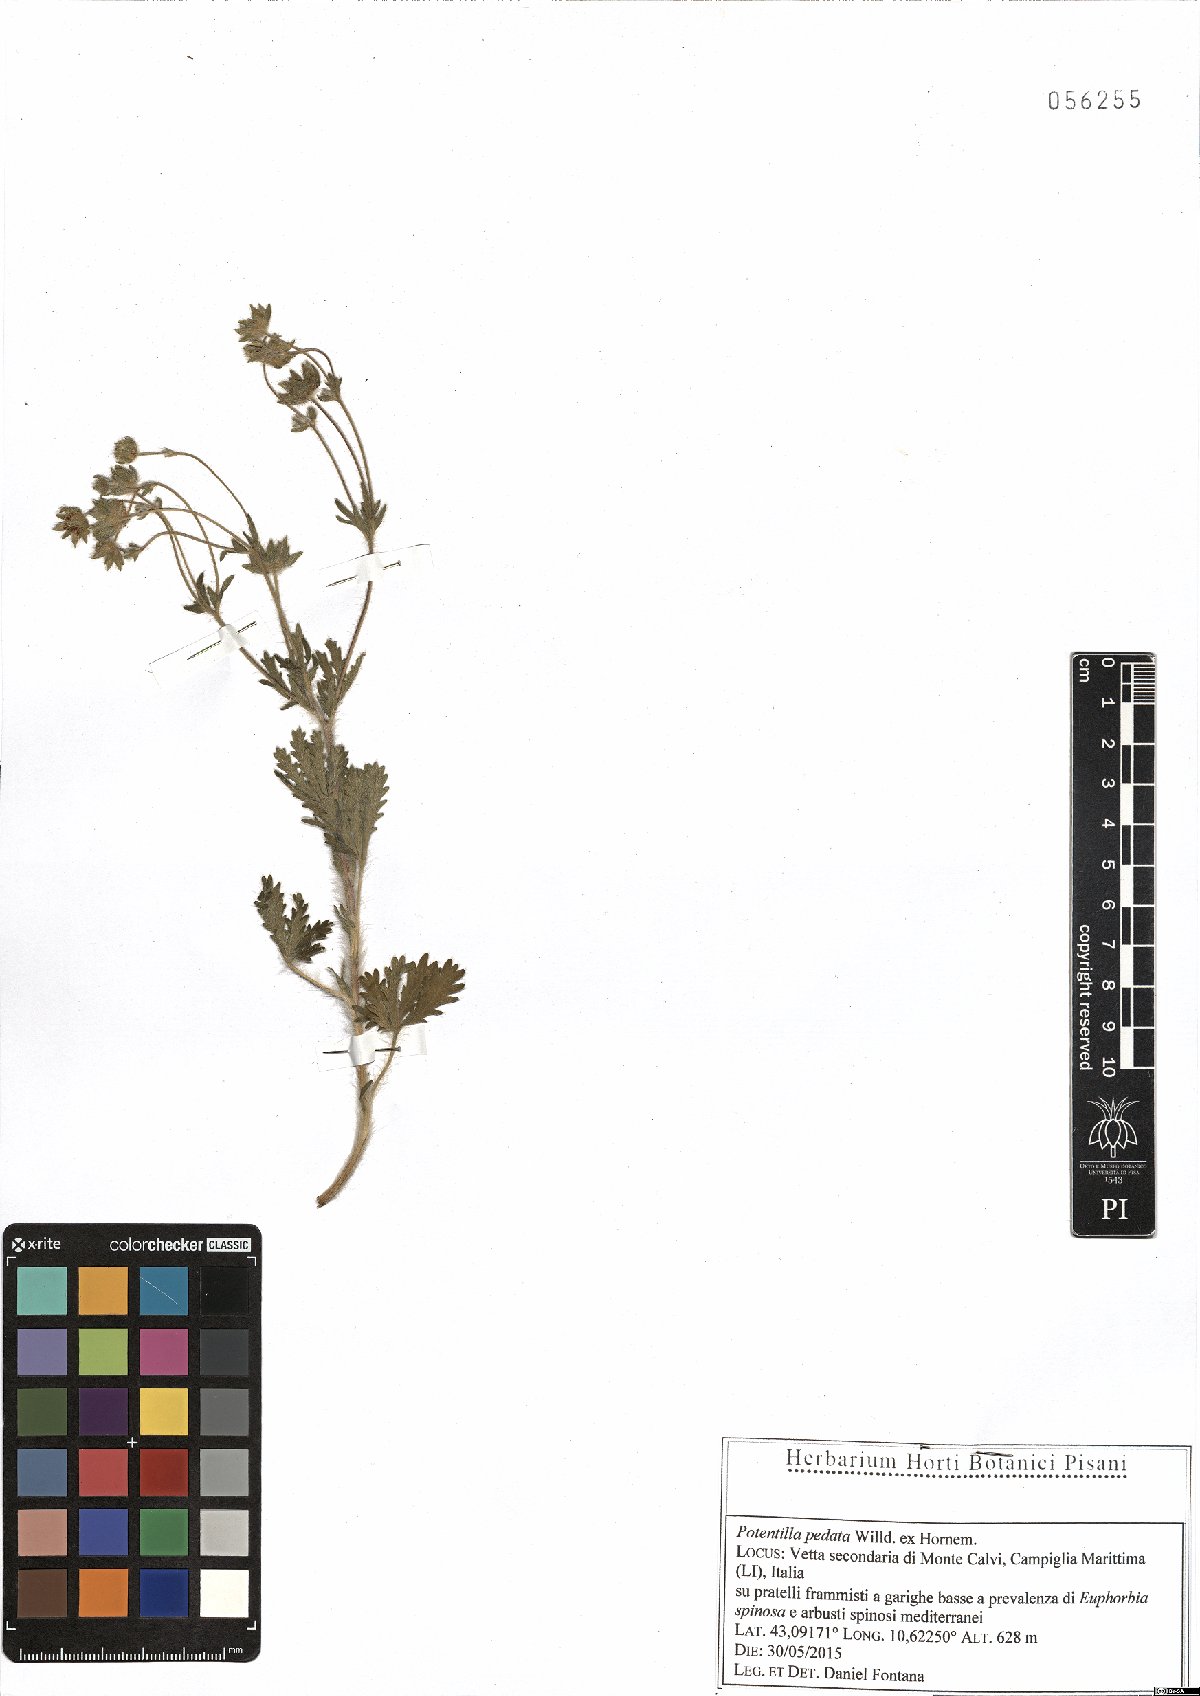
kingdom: Plantae
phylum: Tracheophyta
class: Magnoliopsida
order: Rosales
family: Rosaceae
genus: Potentilla
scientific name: Potentilla pedata
